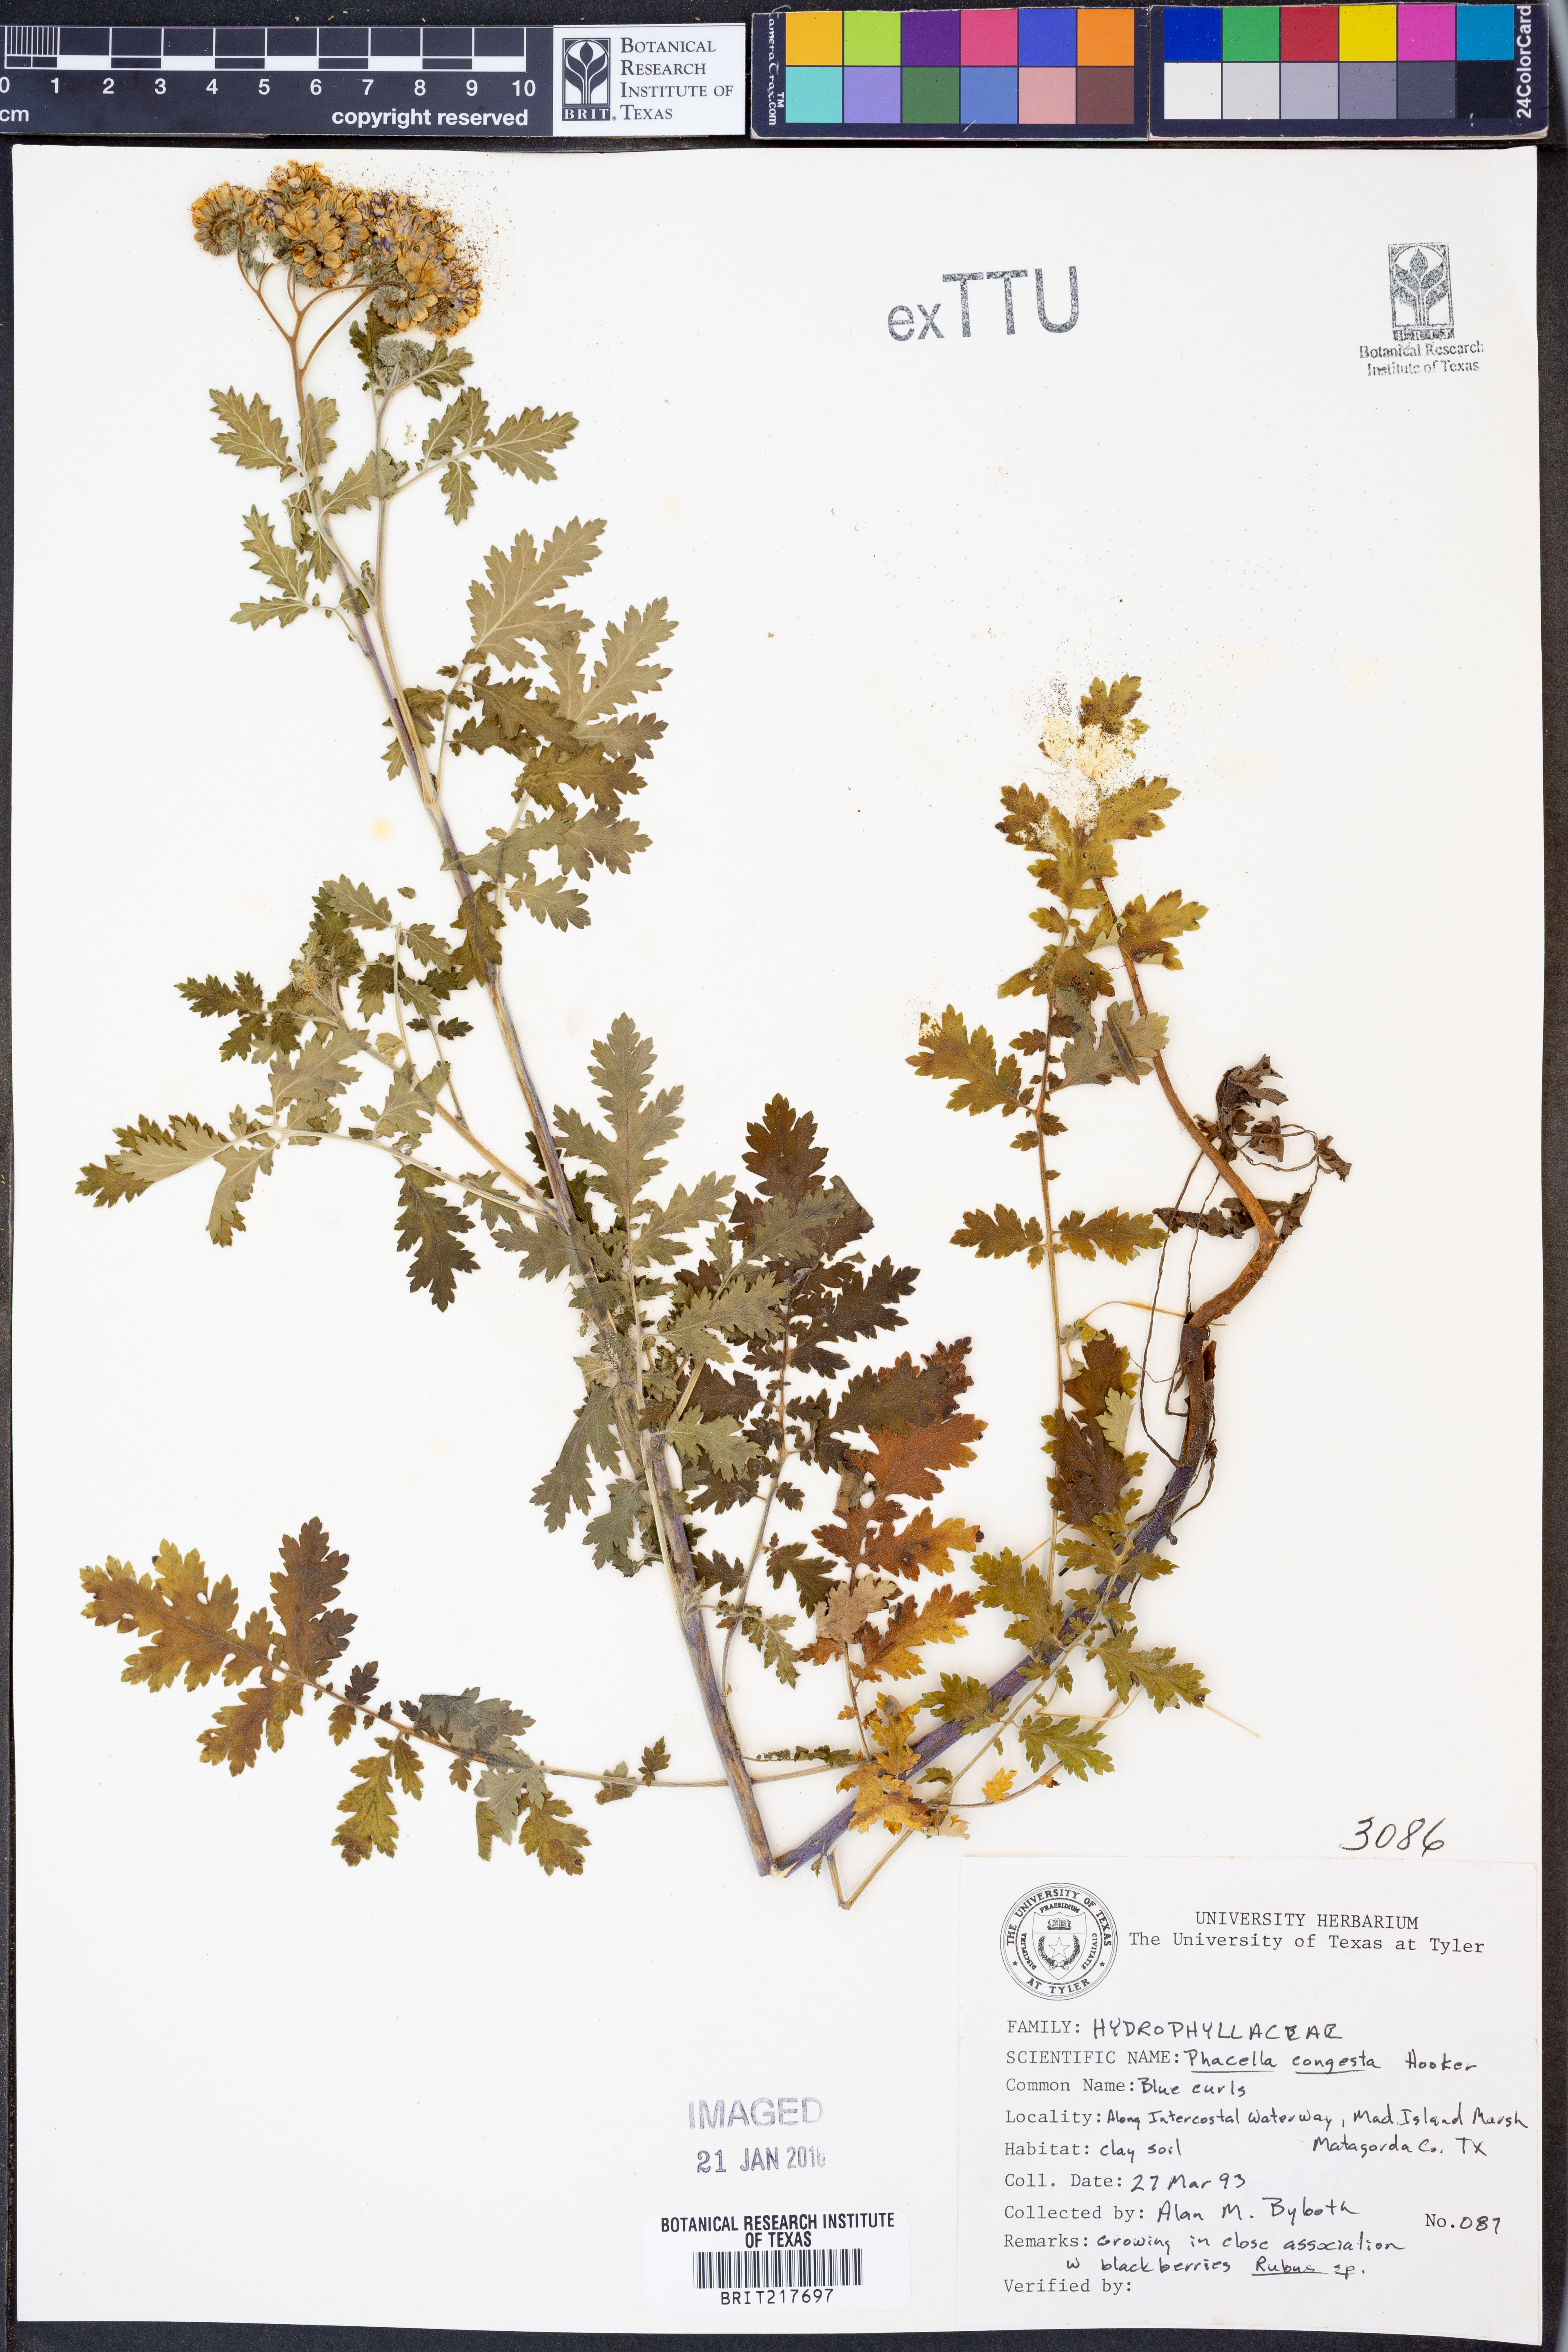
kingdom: Plantae
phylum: Tracheophyta
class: Magnoliopsida
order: Boraginales
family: Hydrophyllaceae
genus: Phacelia
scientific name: Phacelia congesta
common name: Blue curls
